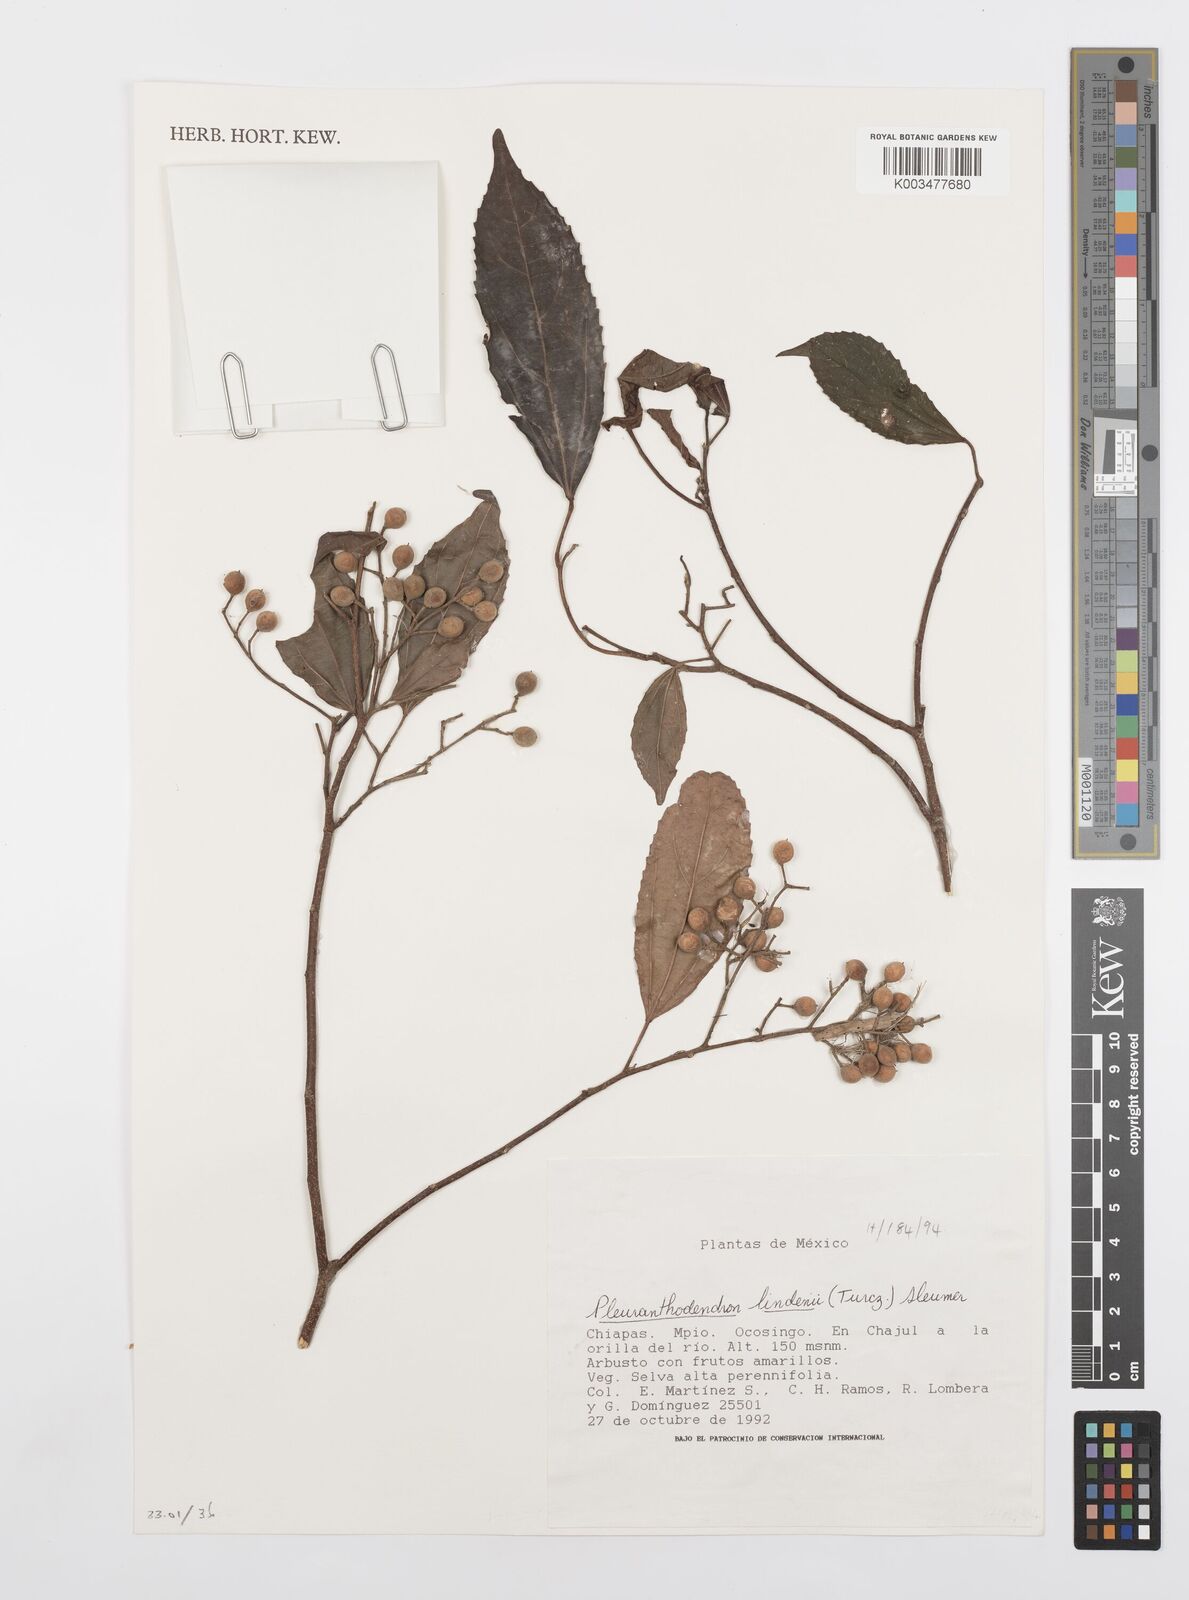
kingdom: Plantae
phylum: Tracheophyta
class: Magnoliopsida
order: Malpighiales
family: Salicaceae
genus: Pleuranthodendron
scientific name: Pleuranthodendron lindenii
